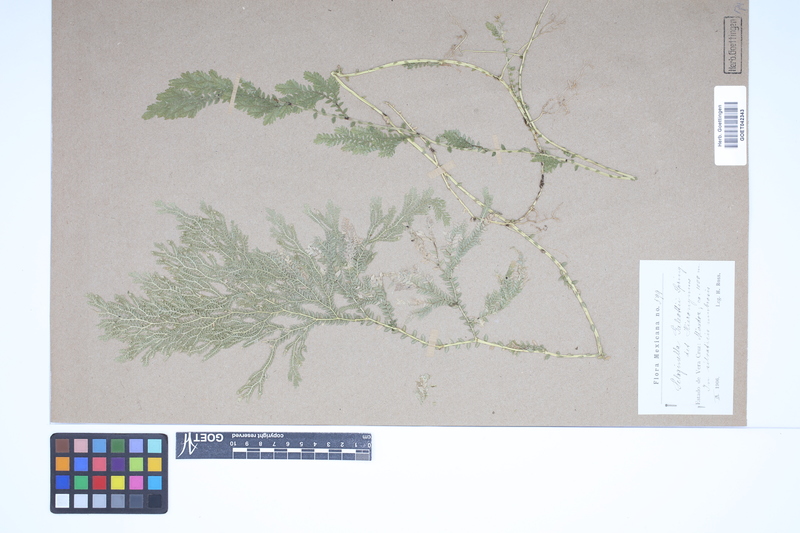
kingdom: Plantae
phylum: Tracheophyta
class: Lycopodiopsida
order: Selaginellales
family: Selaginellaceae
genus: Selaginella
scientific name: Selaginella stellata
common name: Starry spikemoss
